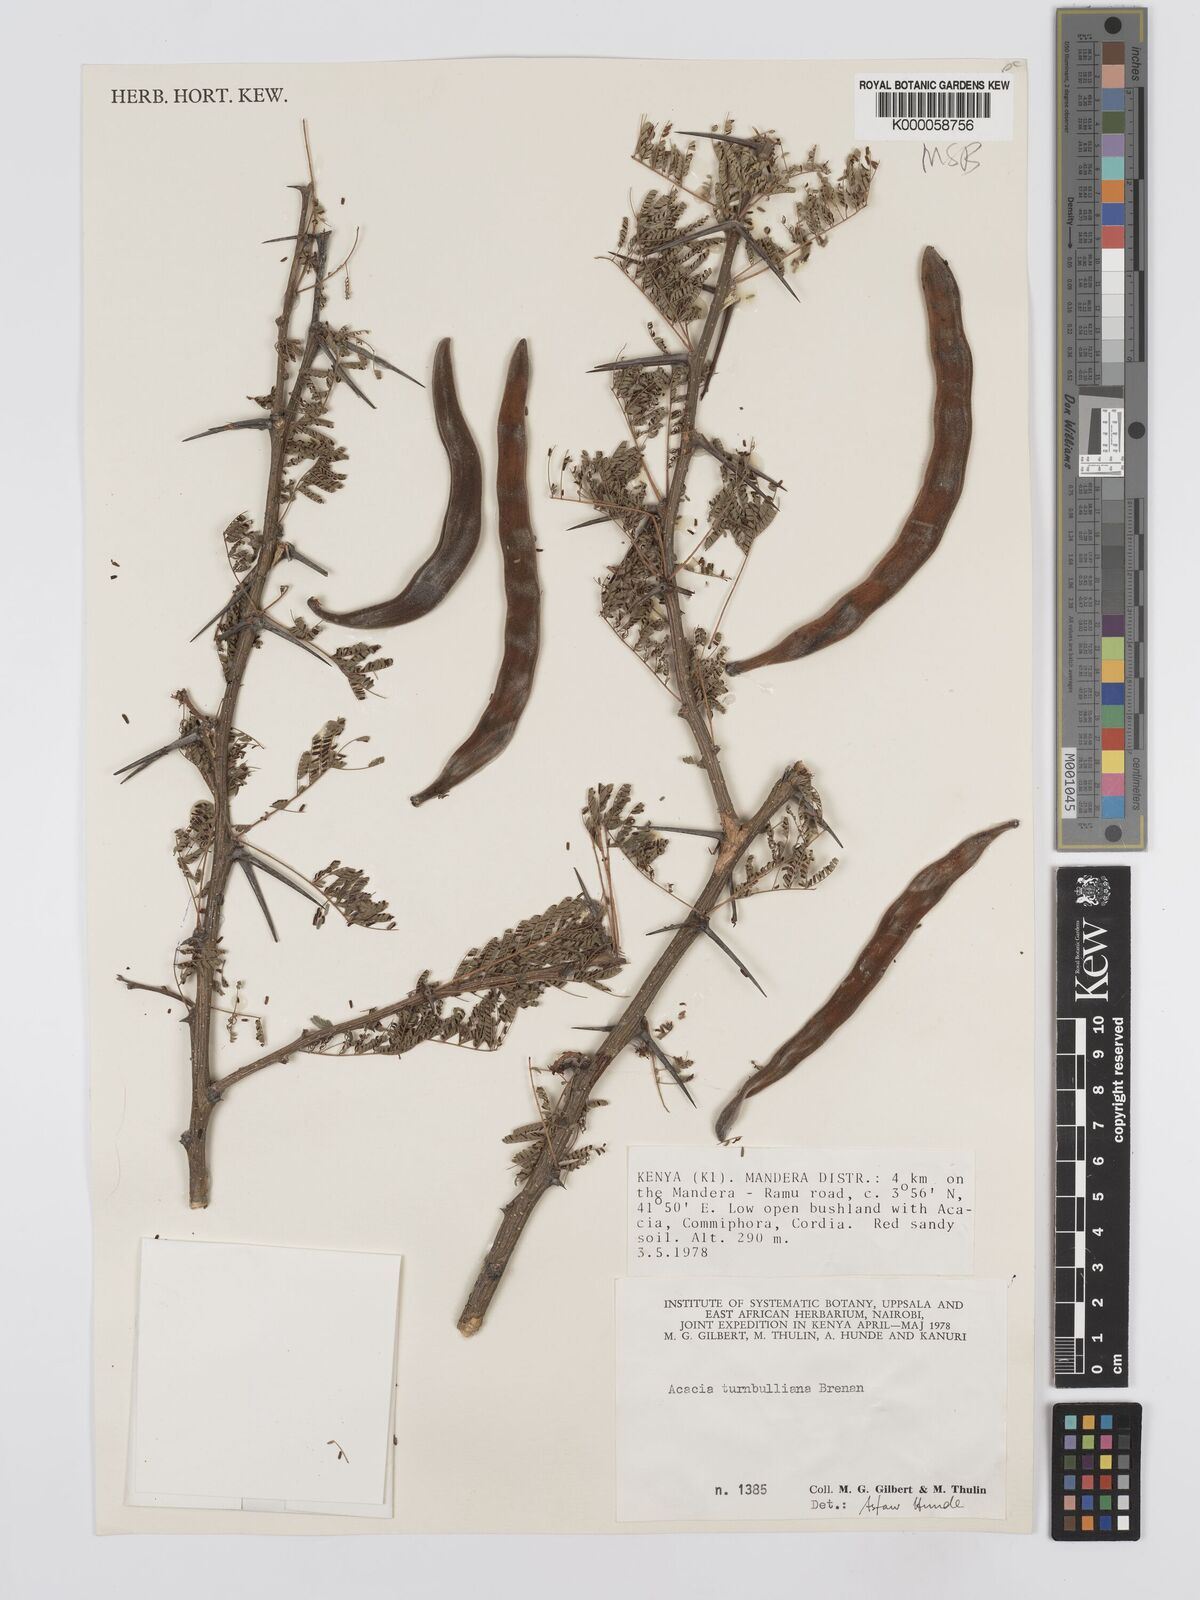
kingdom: Plantae
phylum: Tracheophyta
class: Magnoliopsida
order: Fabales
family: Fabaceae
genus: Vachellia
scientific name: Vachellia edgeworthii
